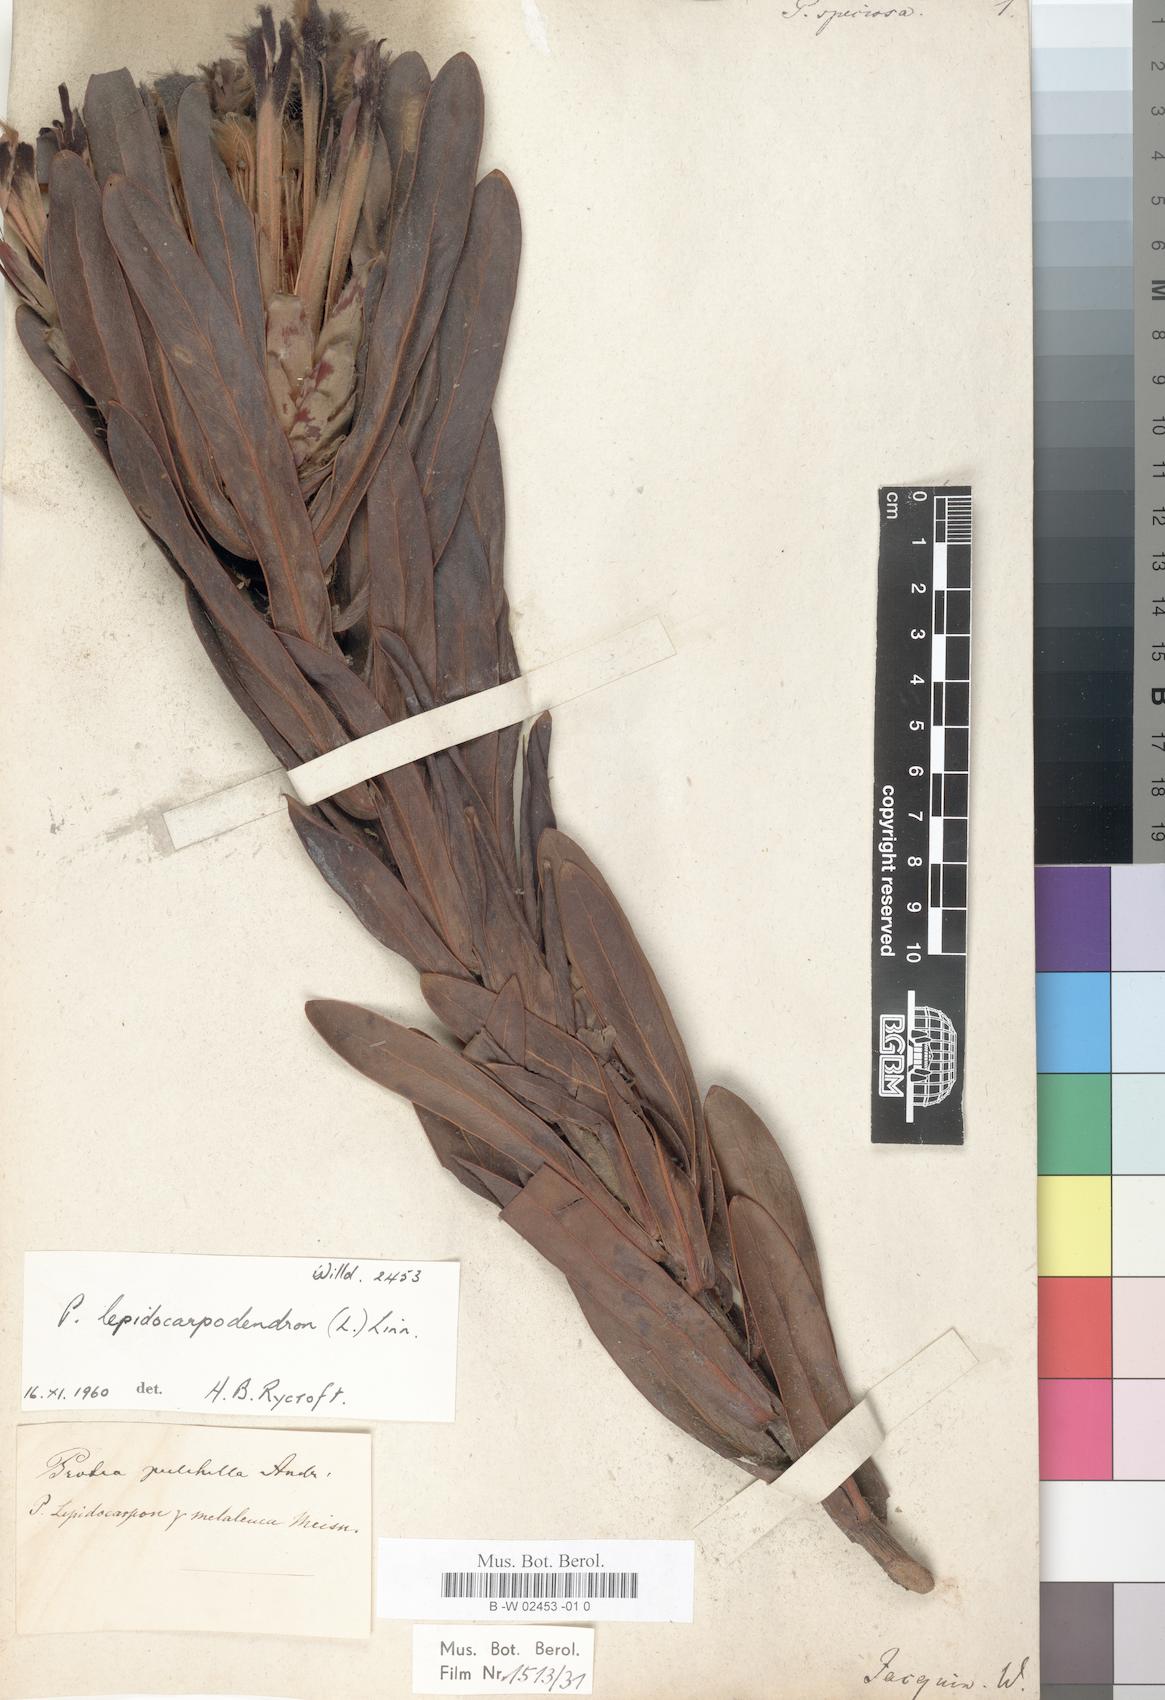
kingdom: Plantae
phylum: Tracheophyta
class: Magnoliopsida
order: Proteales
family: Proteaceae
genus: Protea
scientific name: Protea speciosa
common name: Brown-beard sugarbush
